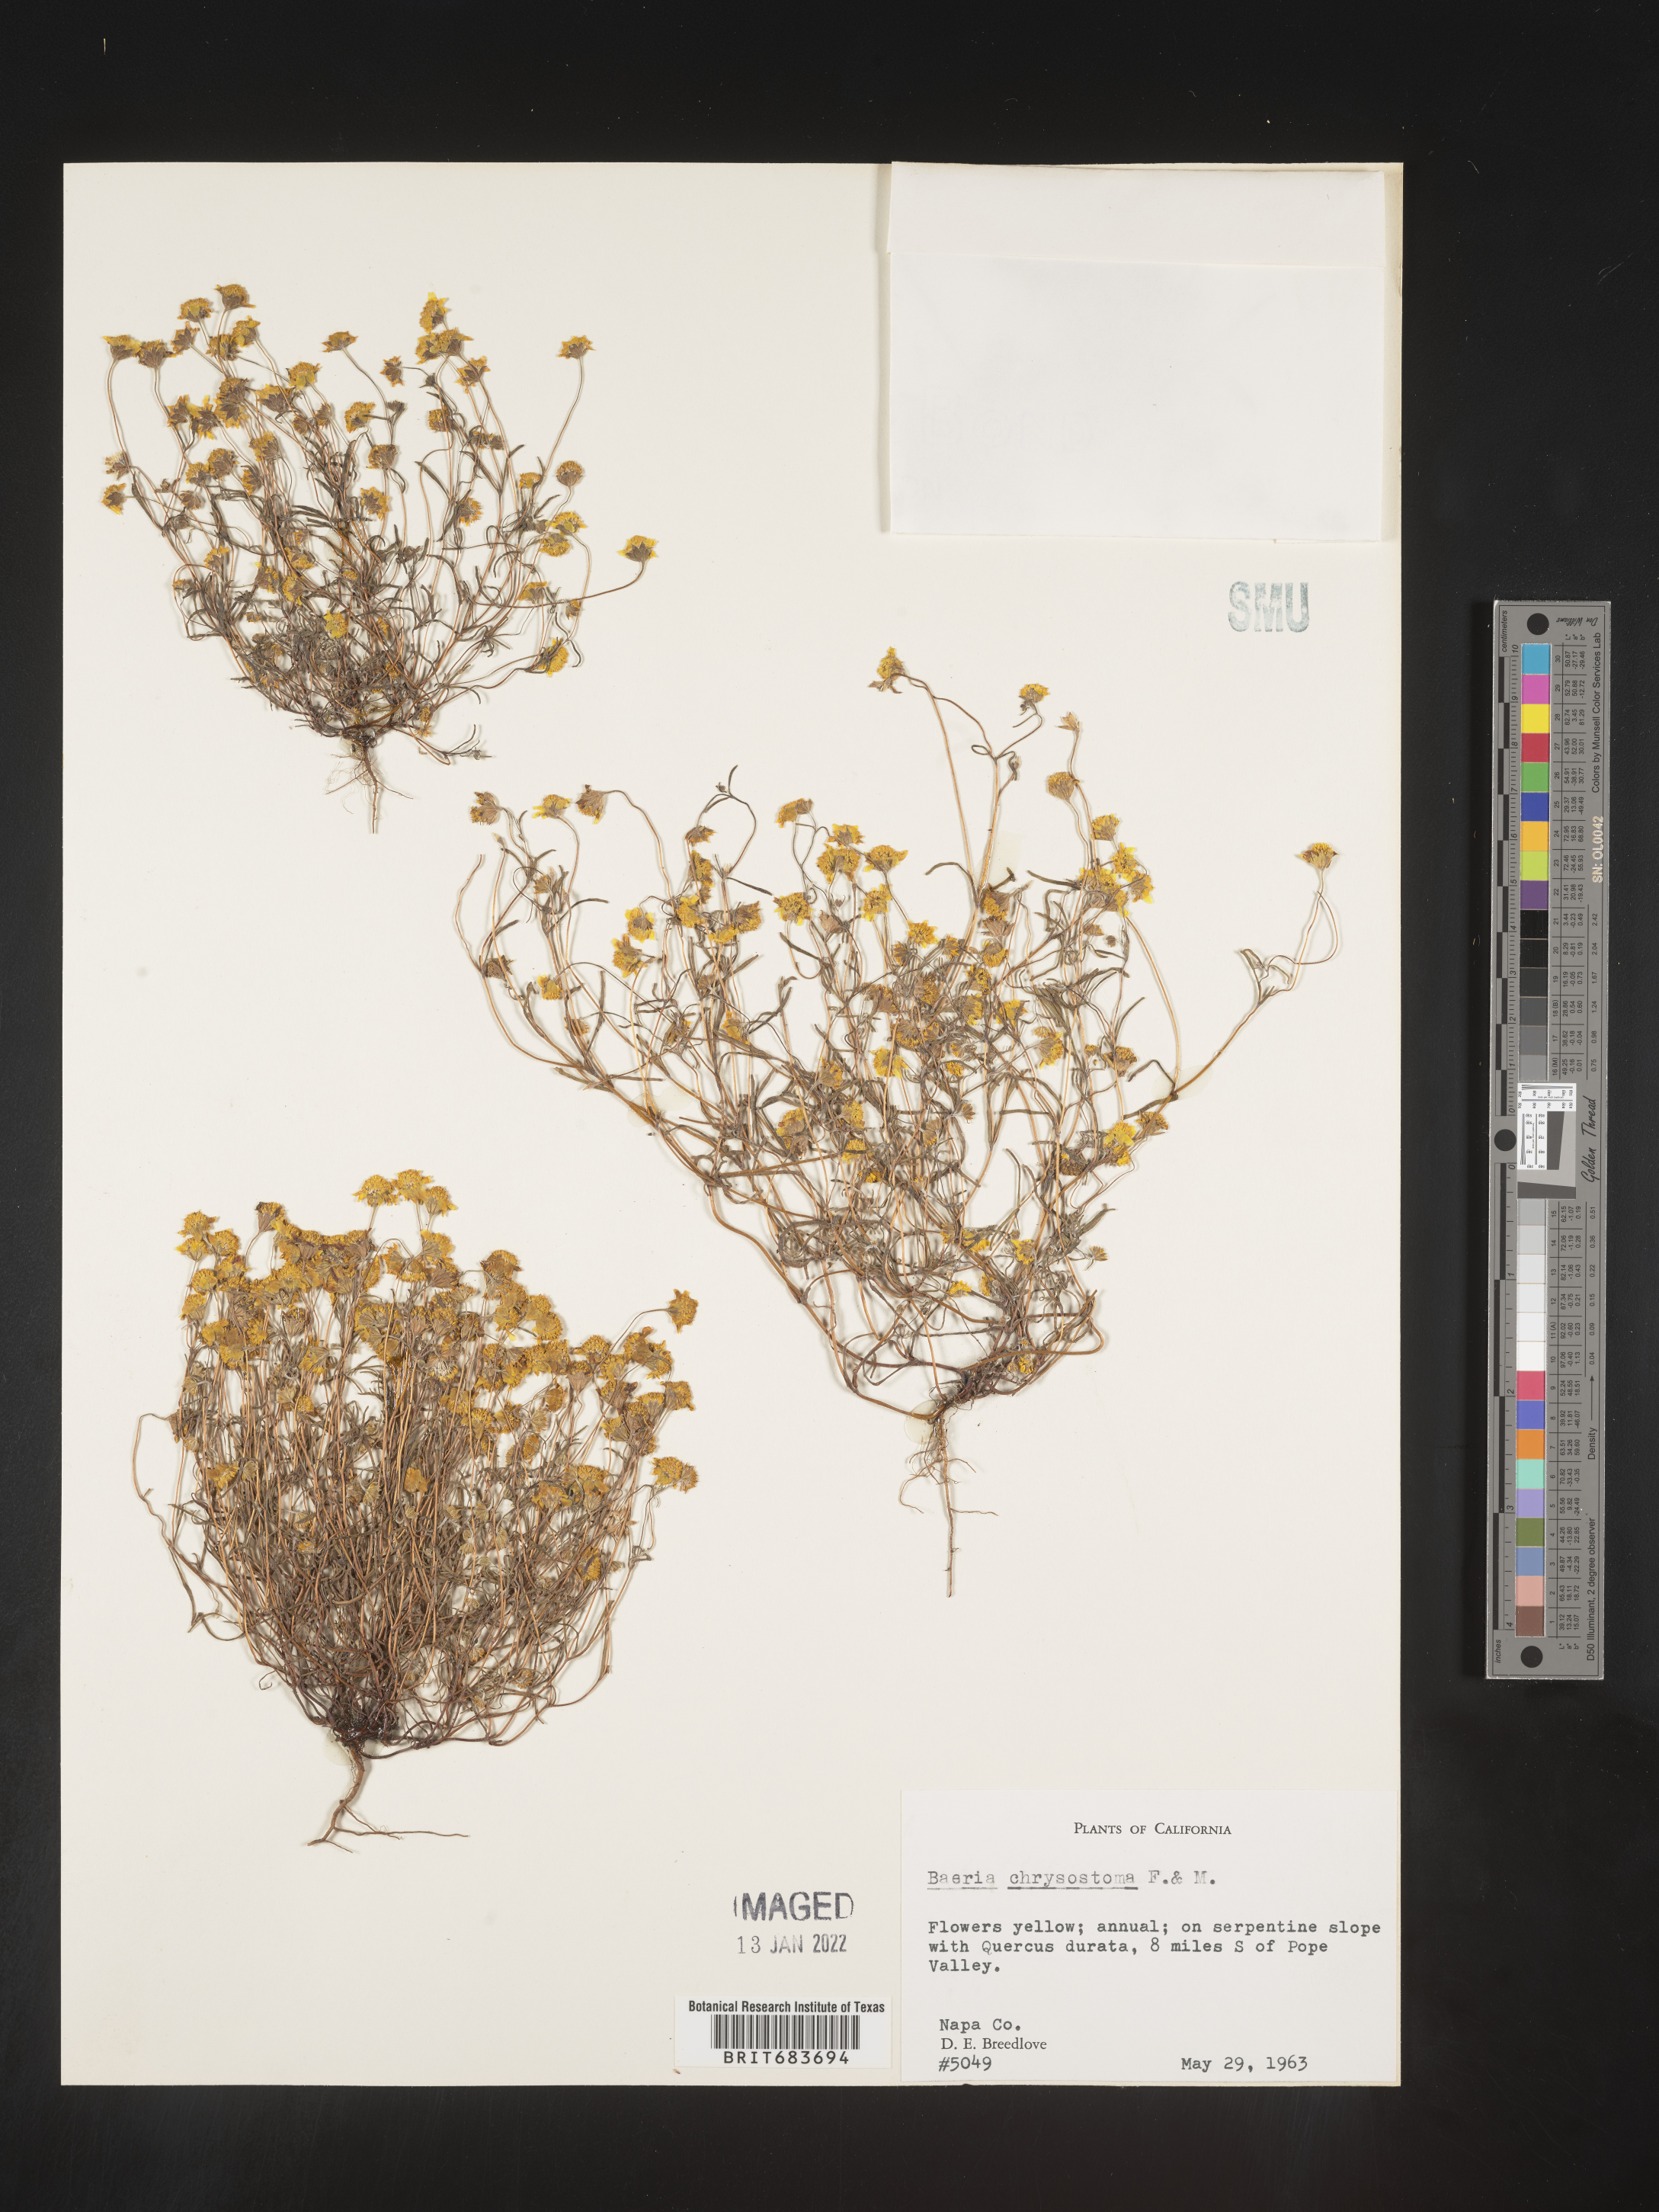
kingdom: Plantae
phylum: Tracheophyta
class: Magnoliopsida
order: Asterales
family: Asteraceae
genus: Lasthenia
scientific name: Lasthenia
